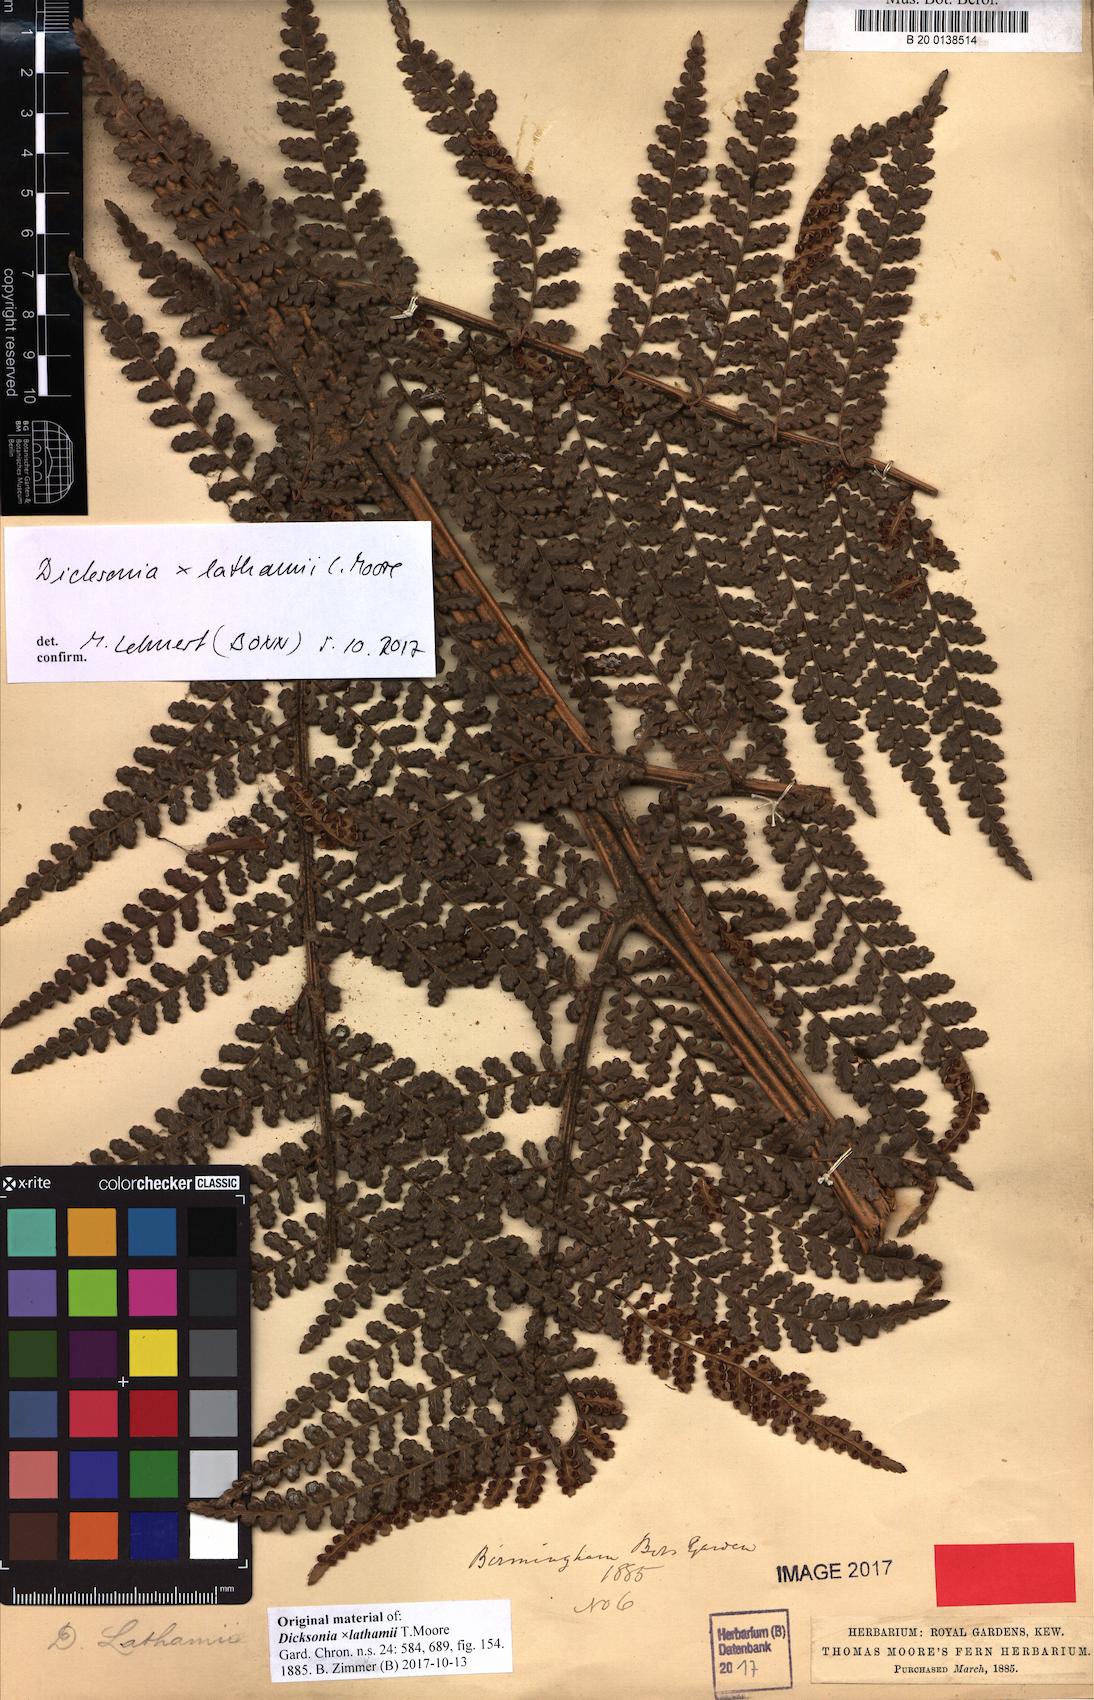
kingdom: Plantae
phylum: Tracheophyta
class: Polypodiopsida
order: Cyatheales
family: Dicksoniaceae
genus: Dicksonia
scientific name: Dicksonia lathamii
